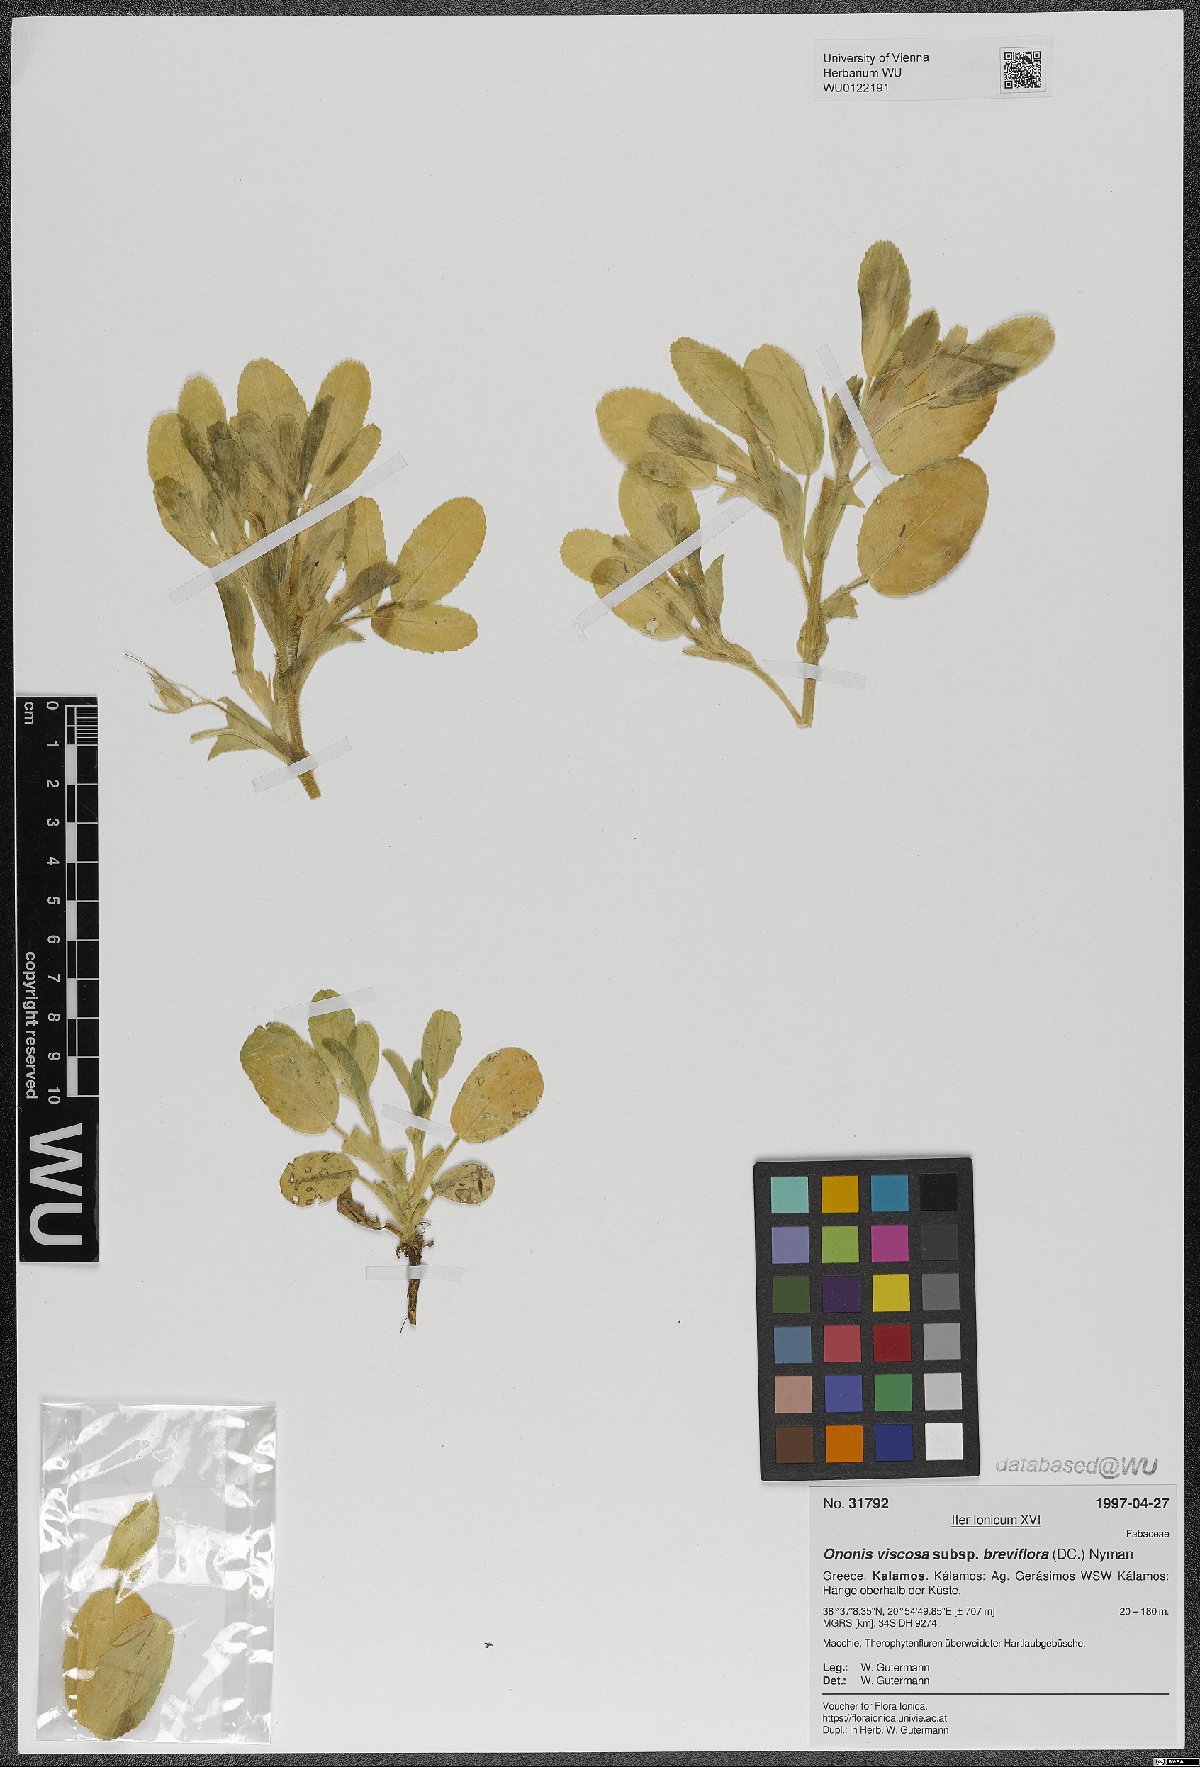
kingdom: Plantae
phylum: Tracheophyta
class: Magnoliopsida
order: Fabales
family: Fabaceae
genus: Ononis
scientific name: Ononis viscosa
